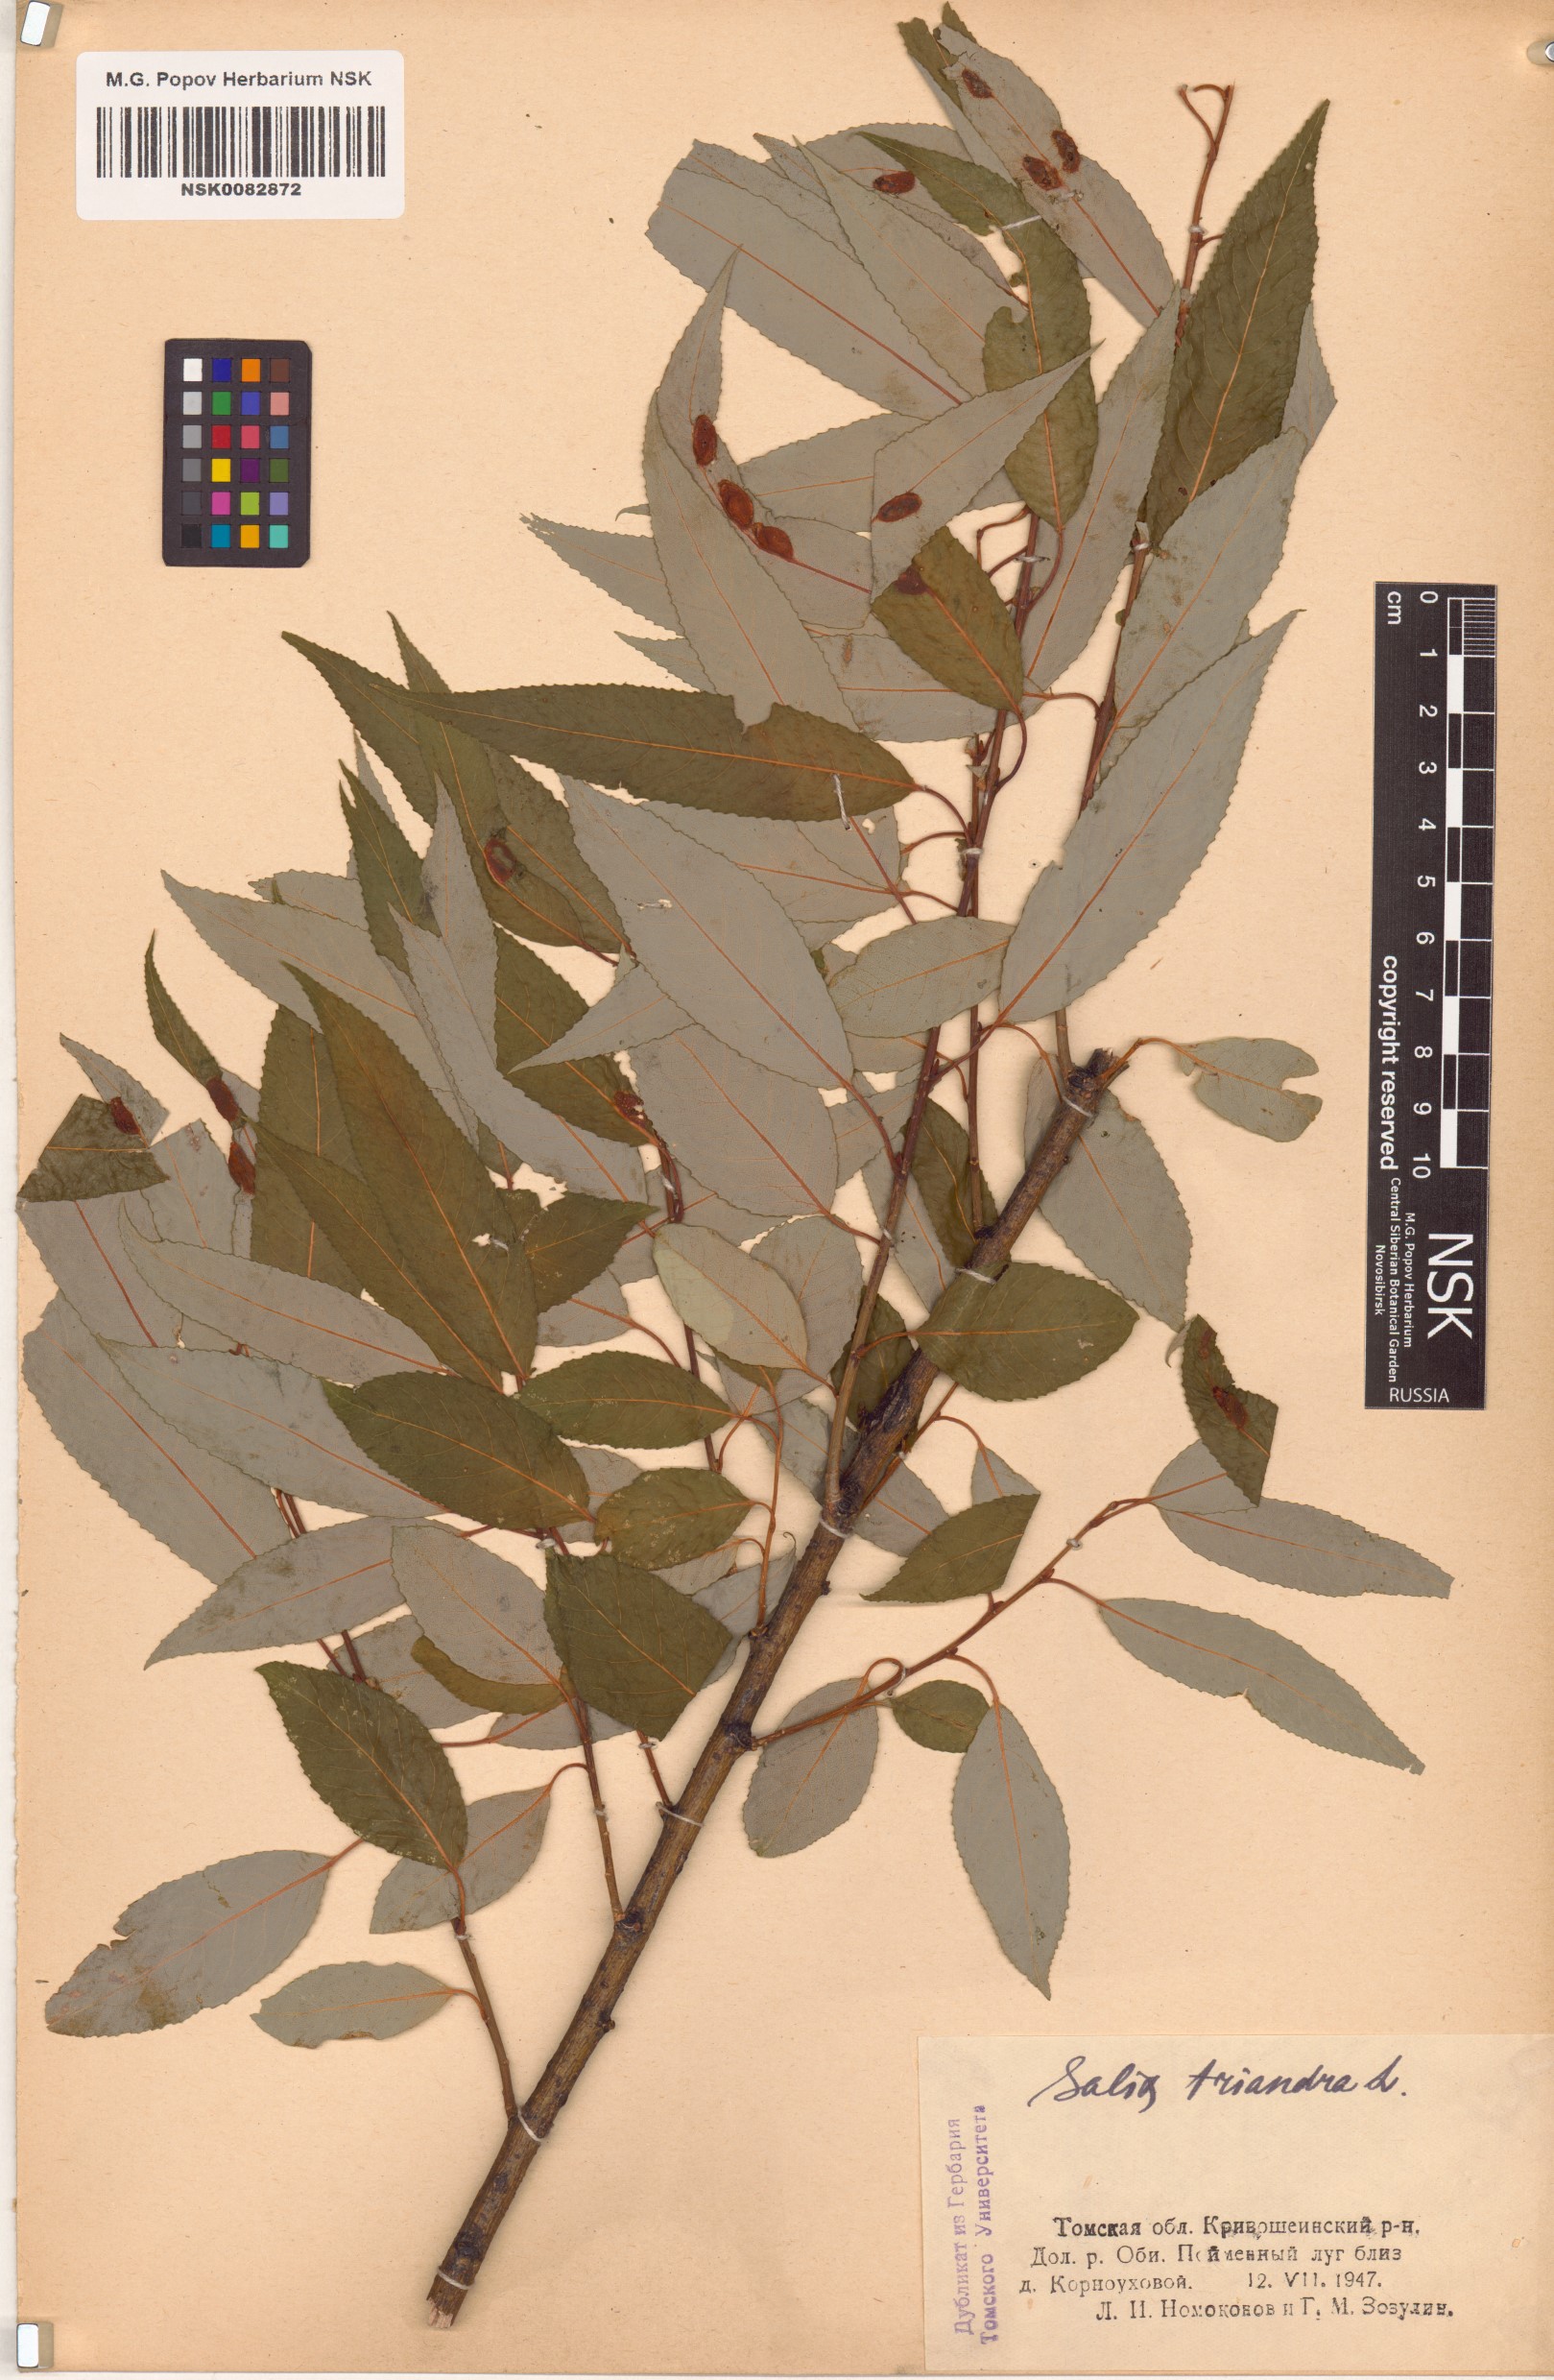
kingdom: Plantae
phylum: Tracheophyta
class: Magnoliopsida
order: Malpighiales
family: Salicaceae
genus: Salix
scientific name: Salix triandra
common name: Almond willow
